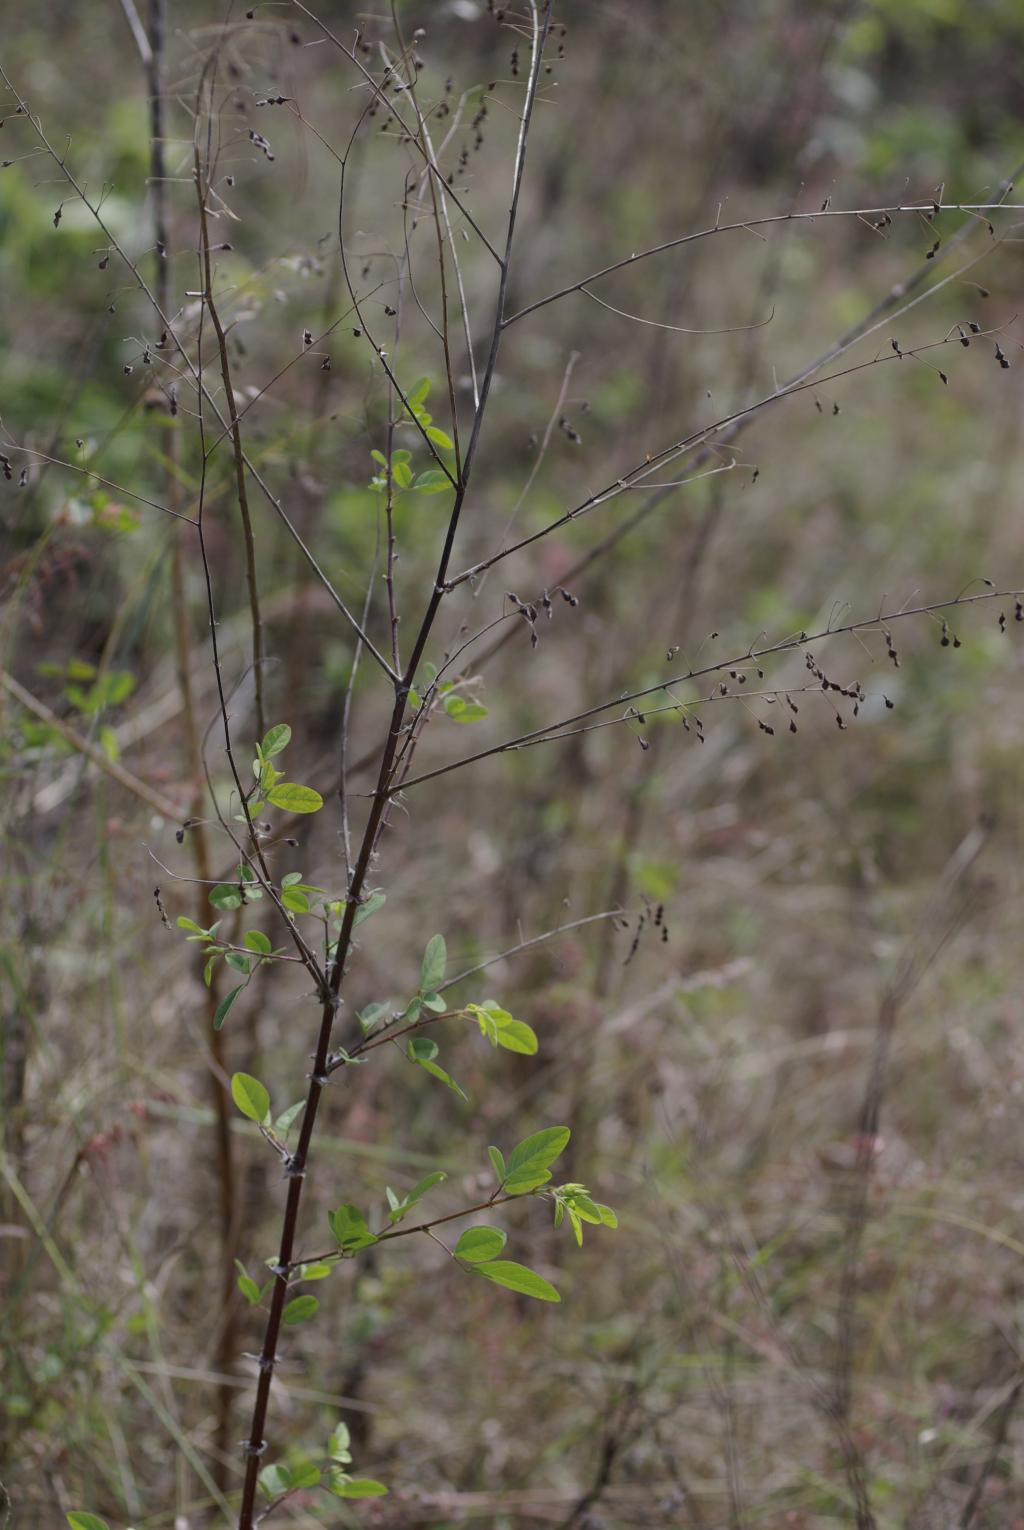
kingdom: Plantae
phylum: Tracheophyta
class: Magnoliopsida
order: Fabales
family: Fabaceae
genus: Desmodium
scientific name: Desmodium tortuosum
